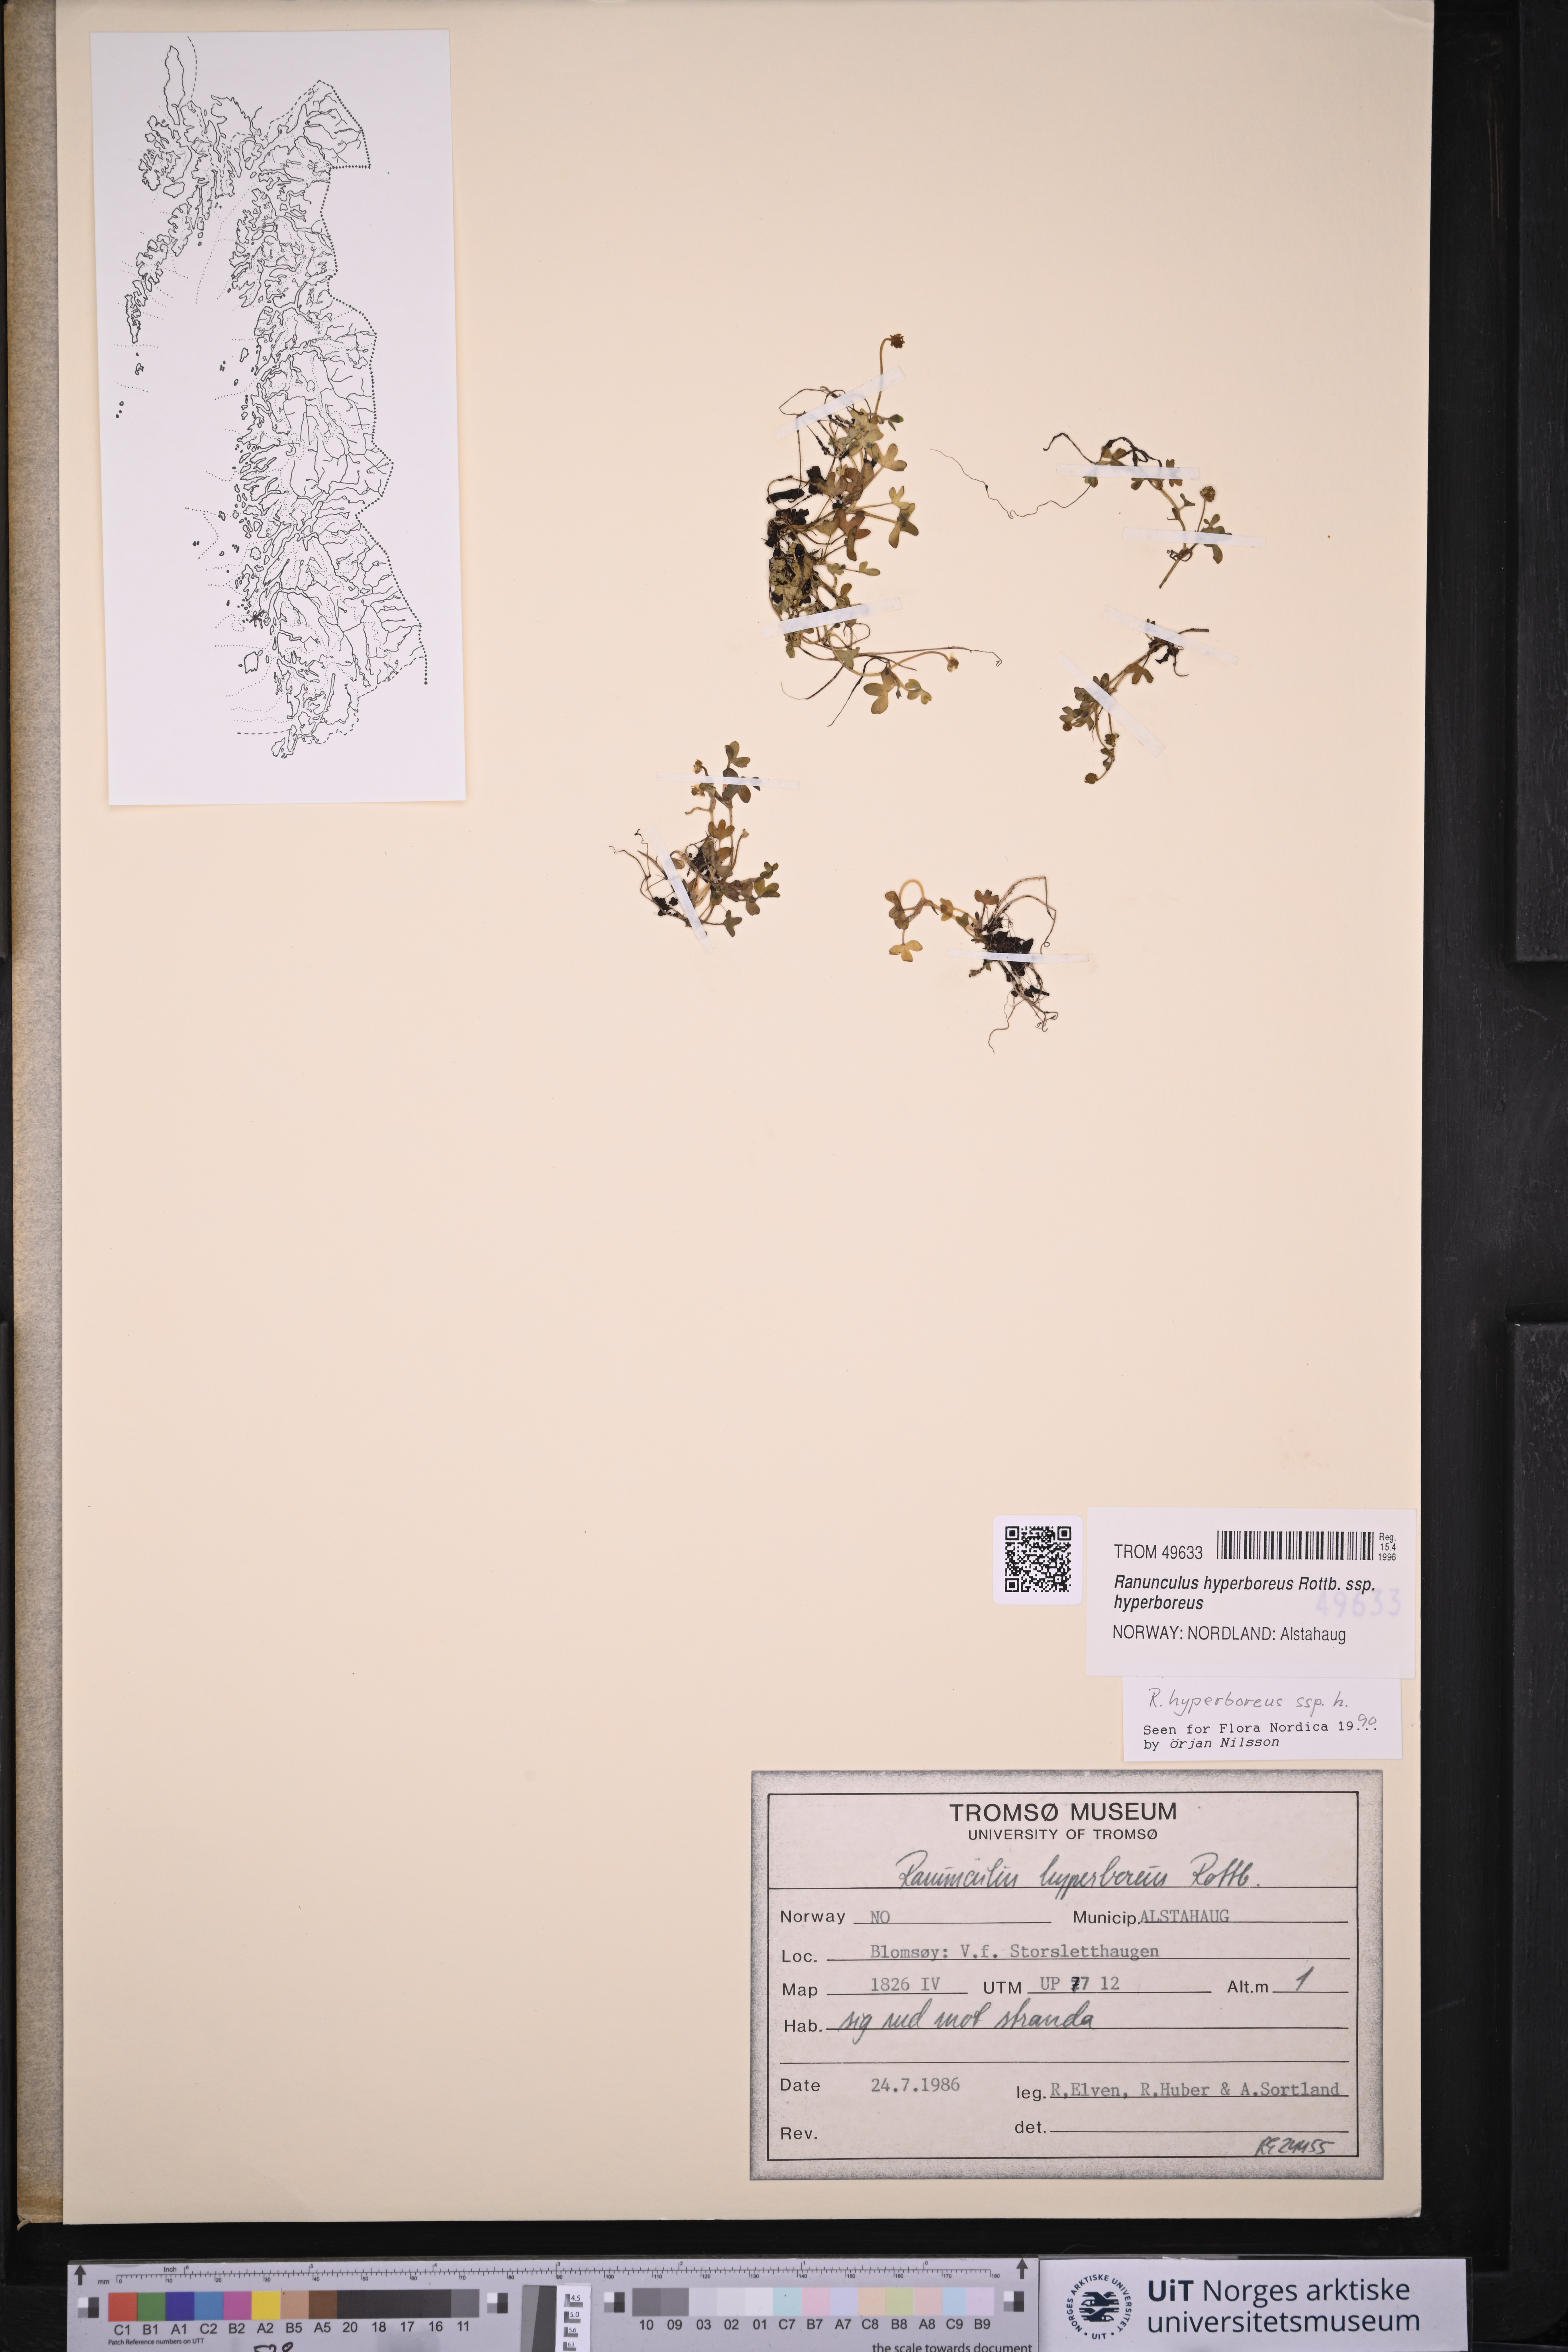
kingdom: Plantae
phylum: Tracheophyta
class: Magnoliopsida
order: Ranunculales
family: Ranunculaceae
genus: Ranunculus
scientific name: Ranunculus hyperboreus
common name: Arctic buttercup
